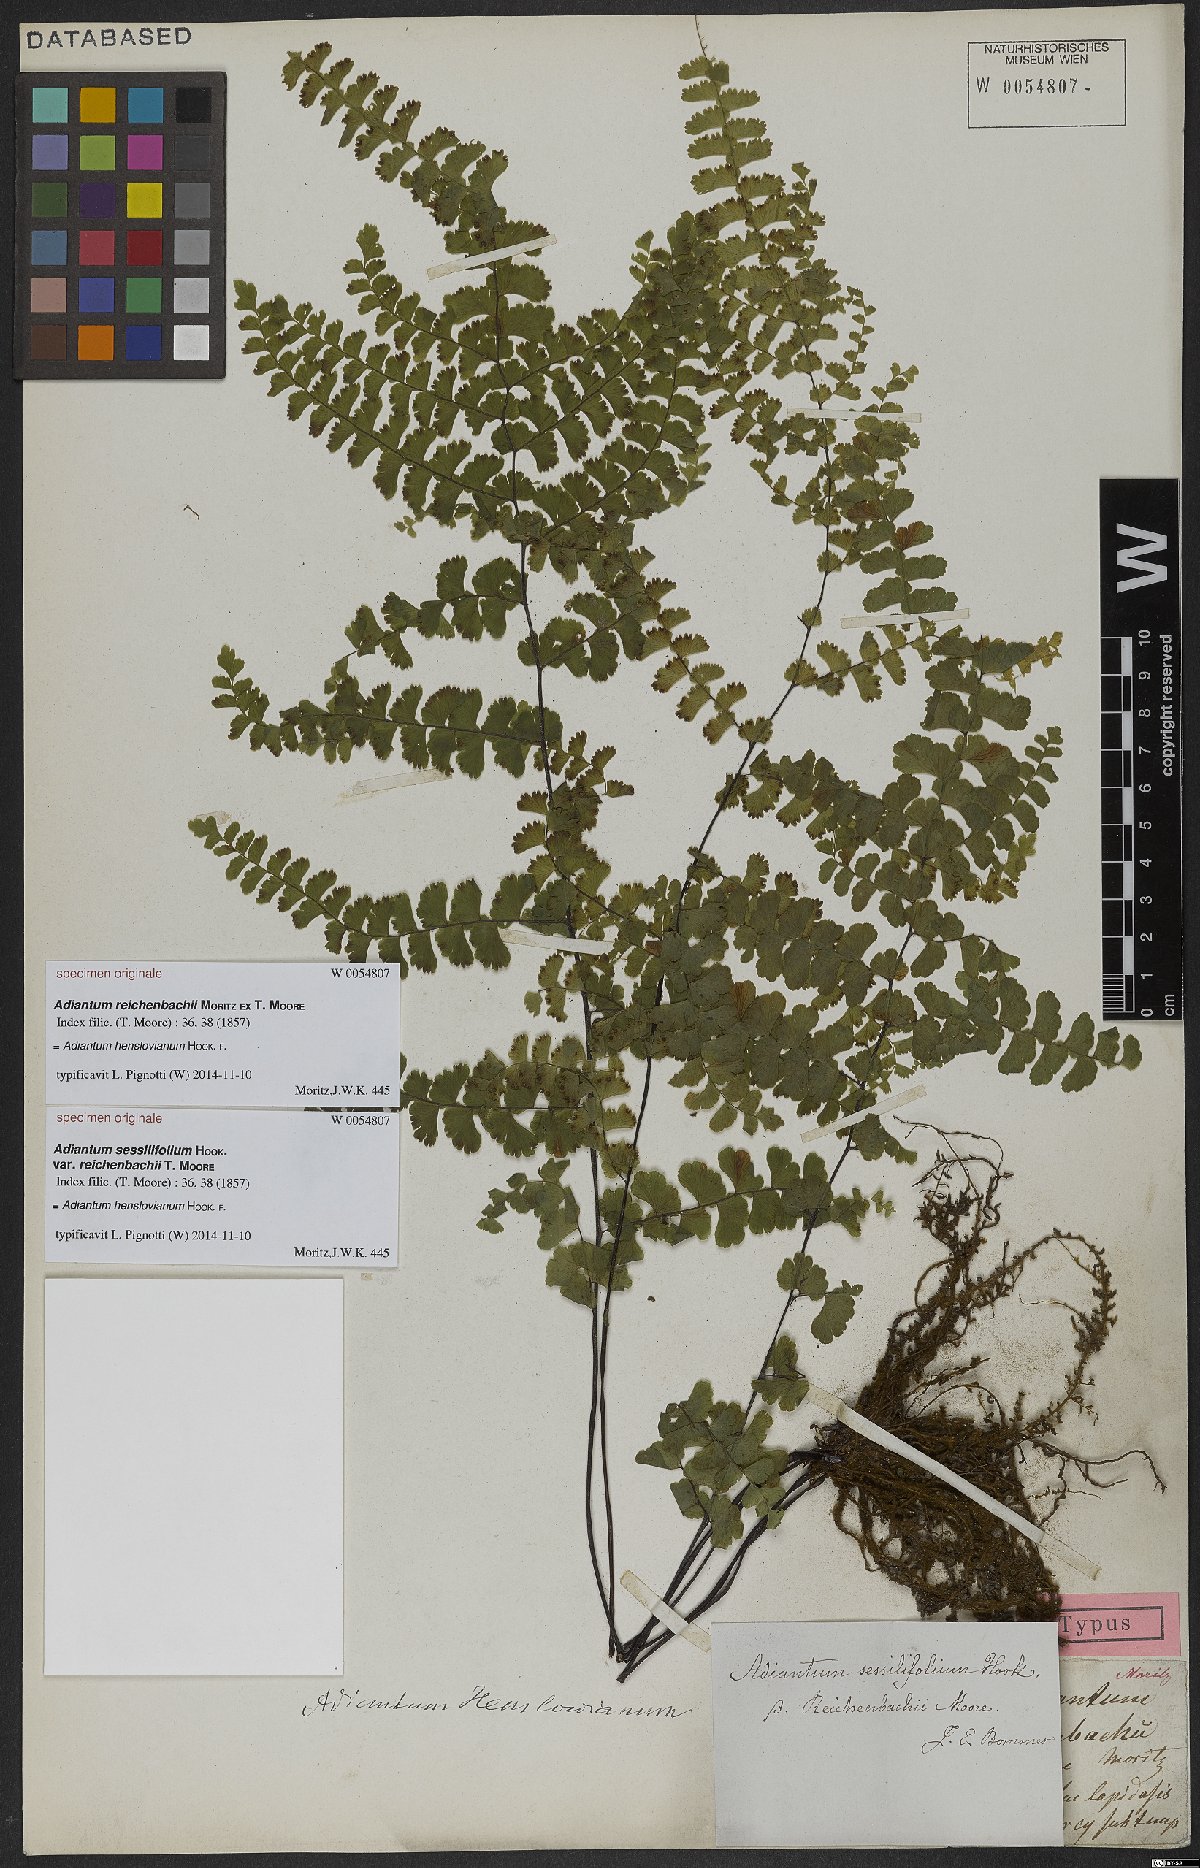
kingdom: Plantae
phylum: Tracheophyta
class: Polypodiopsida
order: Polypodiales
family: Pteridaceae
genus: Adiantum
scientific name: Adiantum henslovianum
